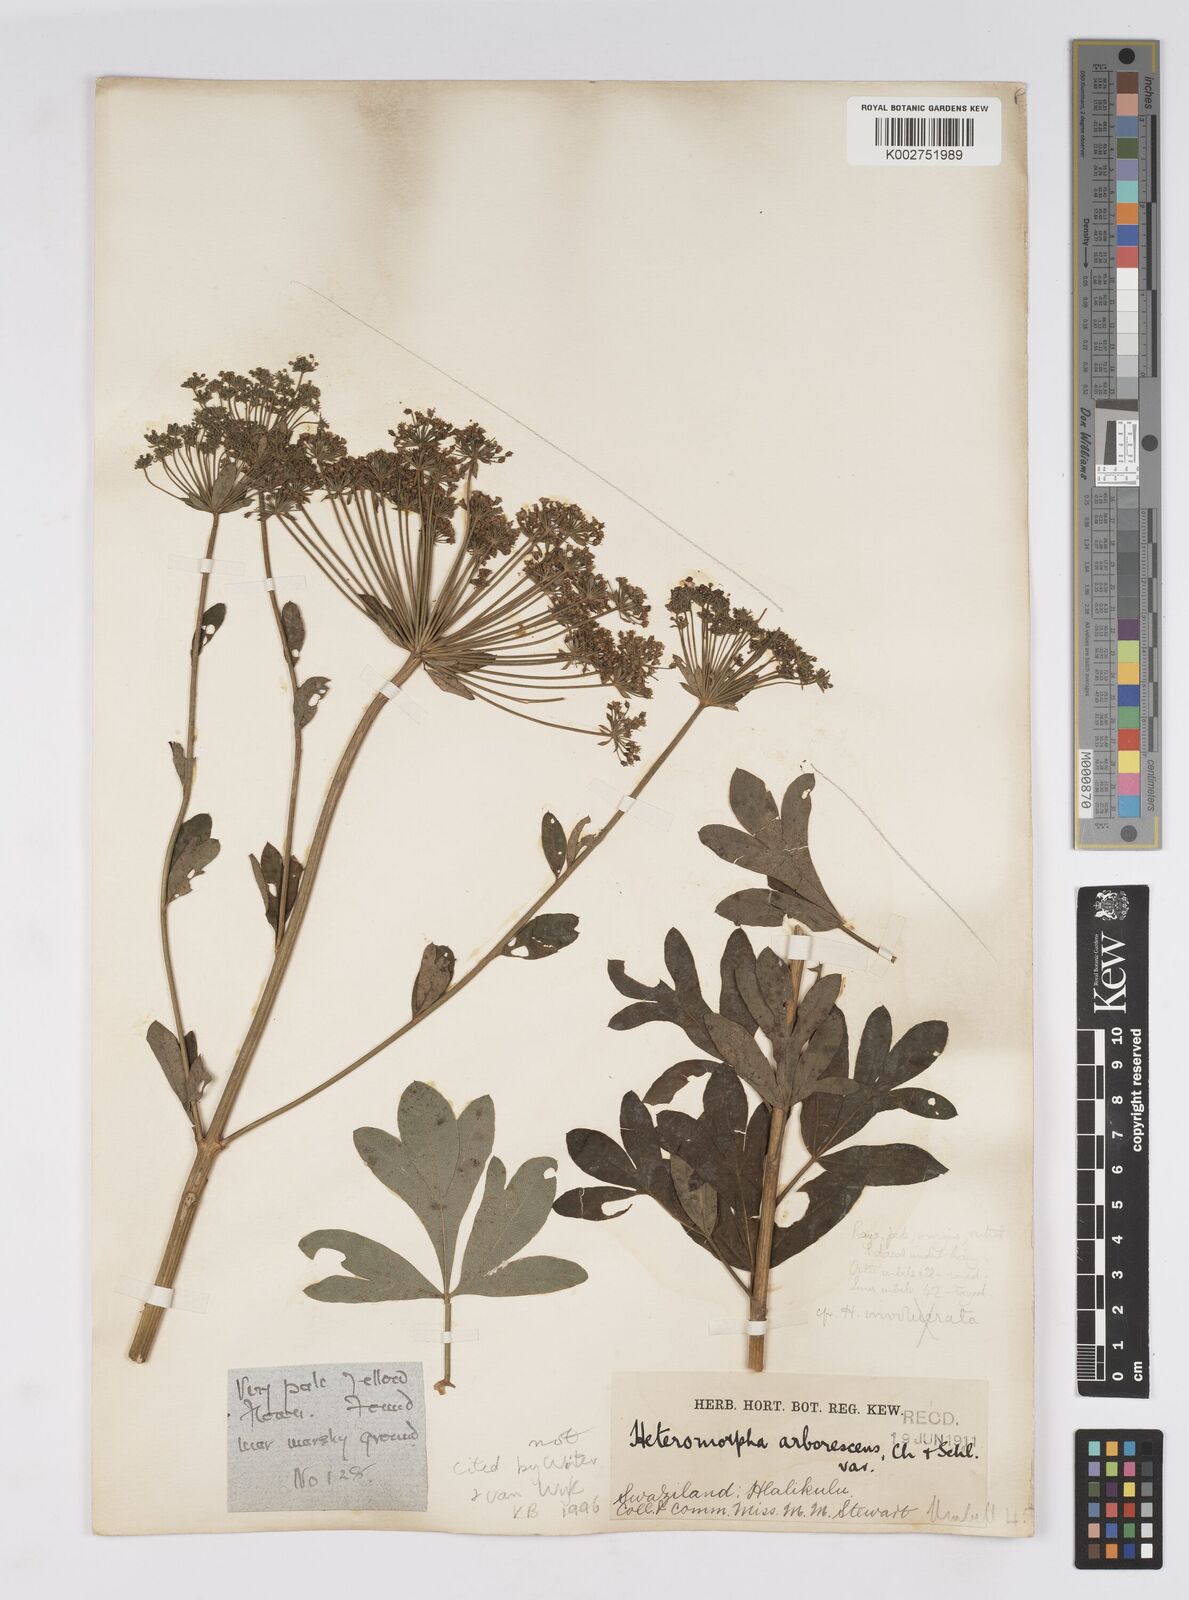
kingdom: Plantae
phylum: Tracheophyta
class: Magnoliopsida
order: Apiales
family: Apiaceae
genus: Heteromorpha
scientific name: Heteromorpha involucrata
